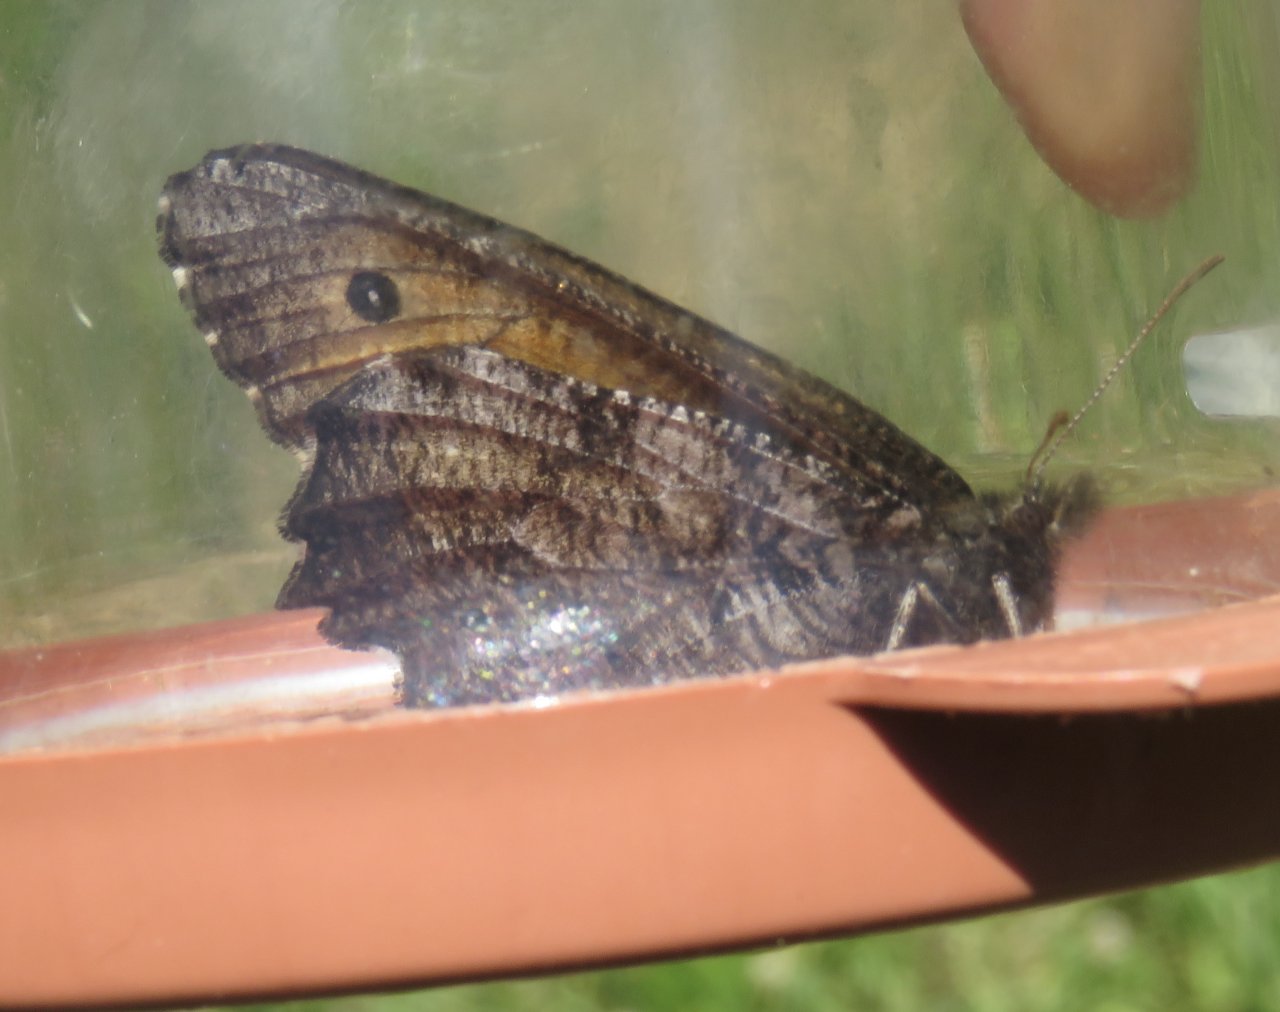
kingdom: Animalia
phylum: Arthropoda
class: Insecta
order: Lepidoptera
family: Nymphalidae
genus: Oeneis
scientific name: Oeneis nevadensis
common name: Great Arctic
